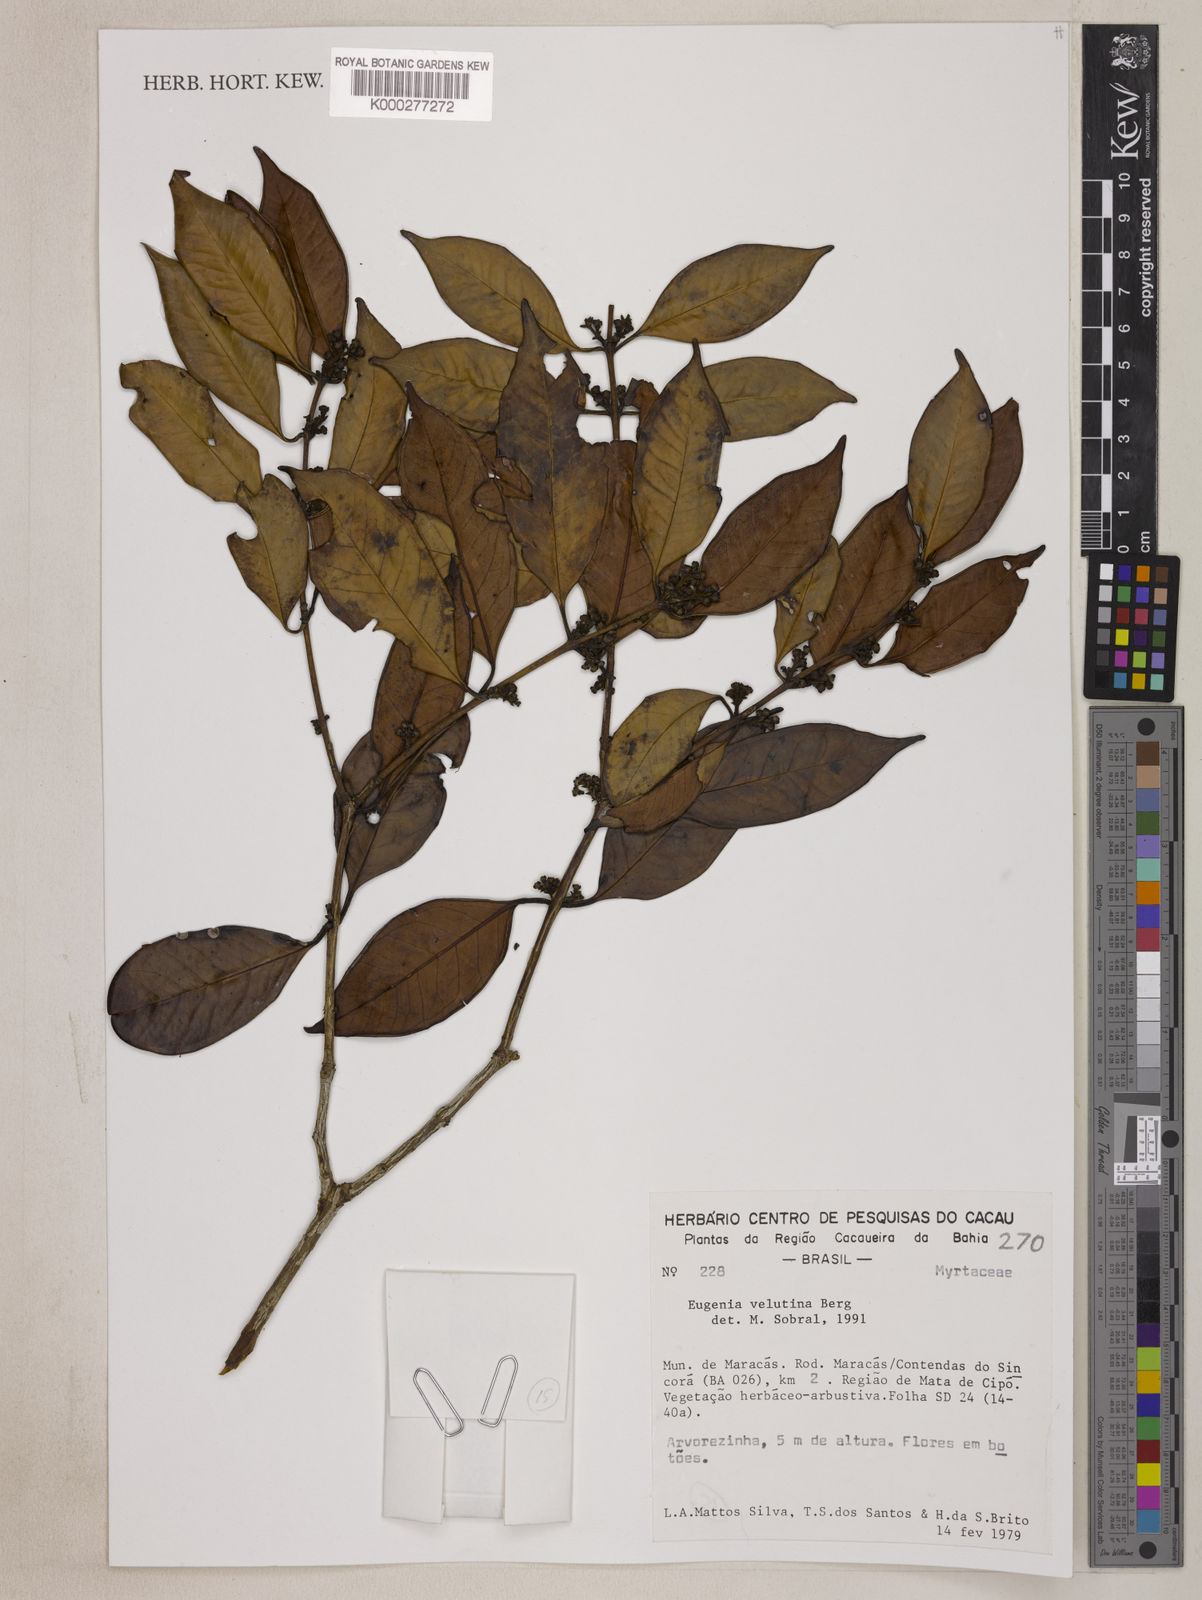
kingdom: Plantae
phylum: Tracheophyta
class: Magnoliopsida
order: Myrtales
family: Myrtaceae
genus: Eugenia
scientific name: Eugenia macrosperma
